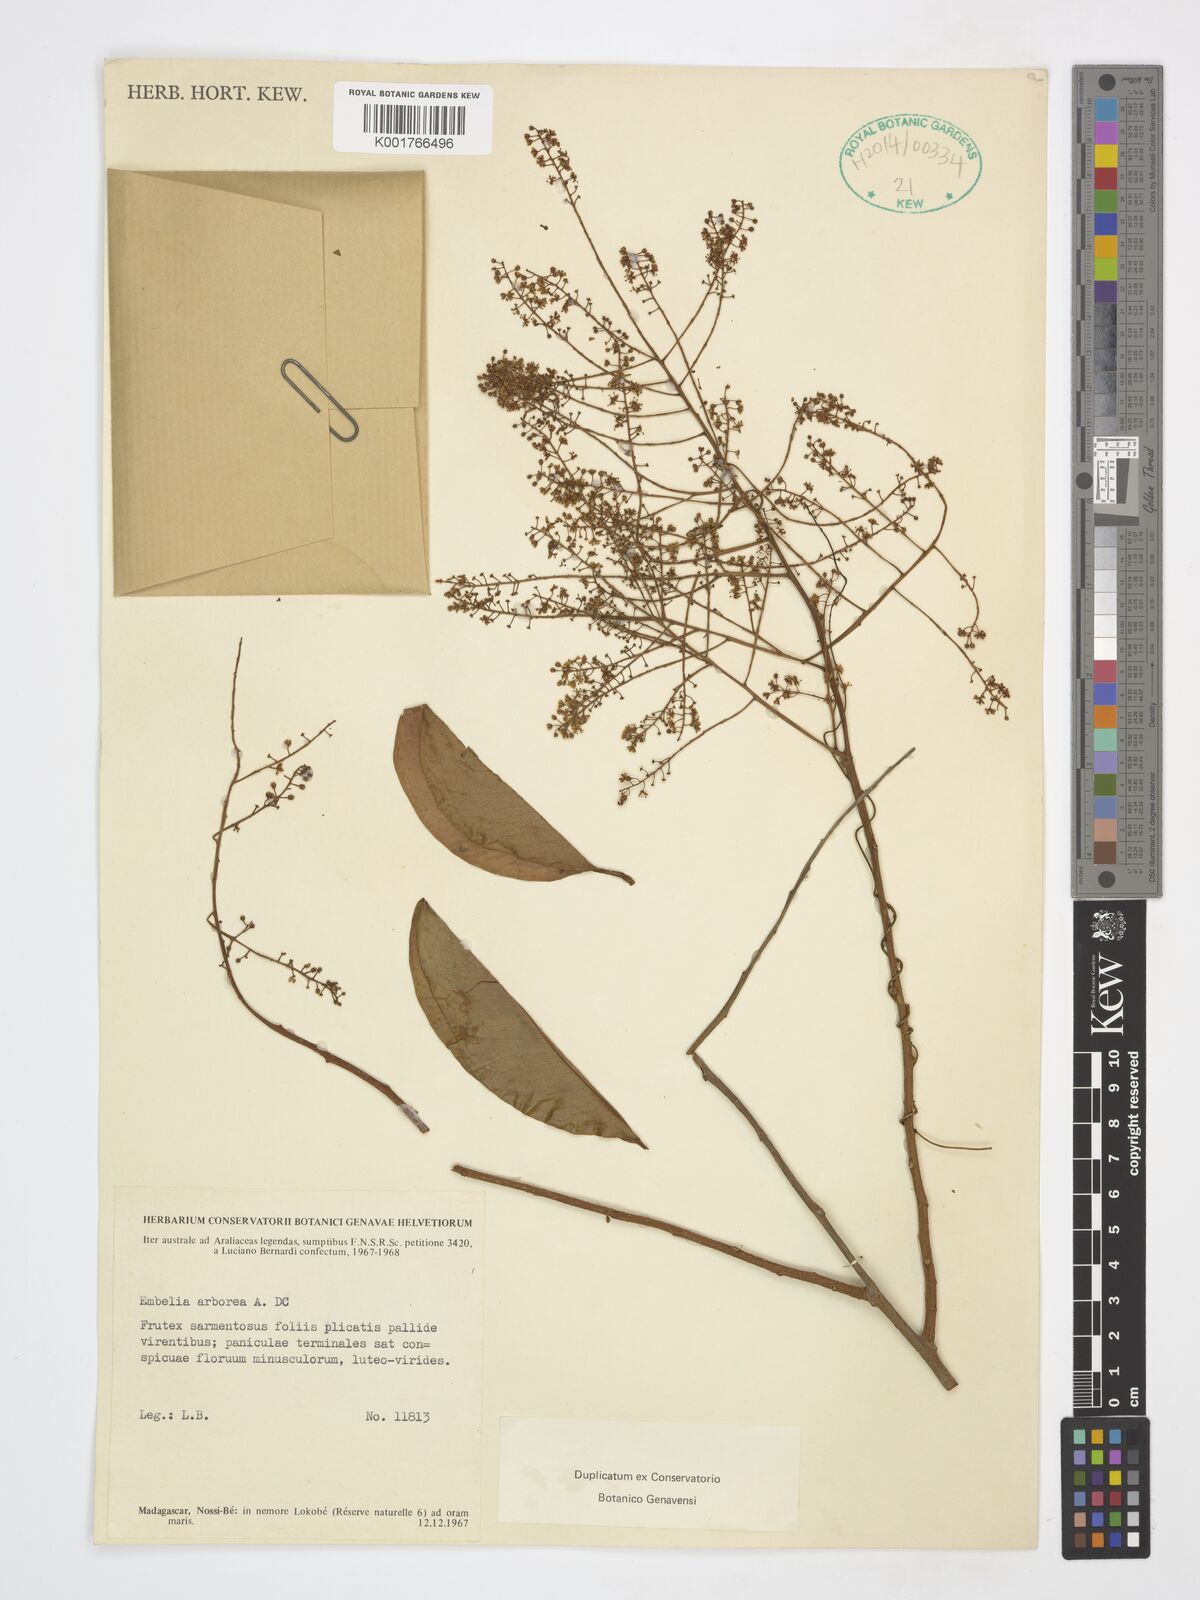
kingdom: Plantae
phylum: Tracheophyta
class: Magnoliopsida
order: Ericales
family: Primulaceae
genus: Embelia
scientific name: Embelia arborea
